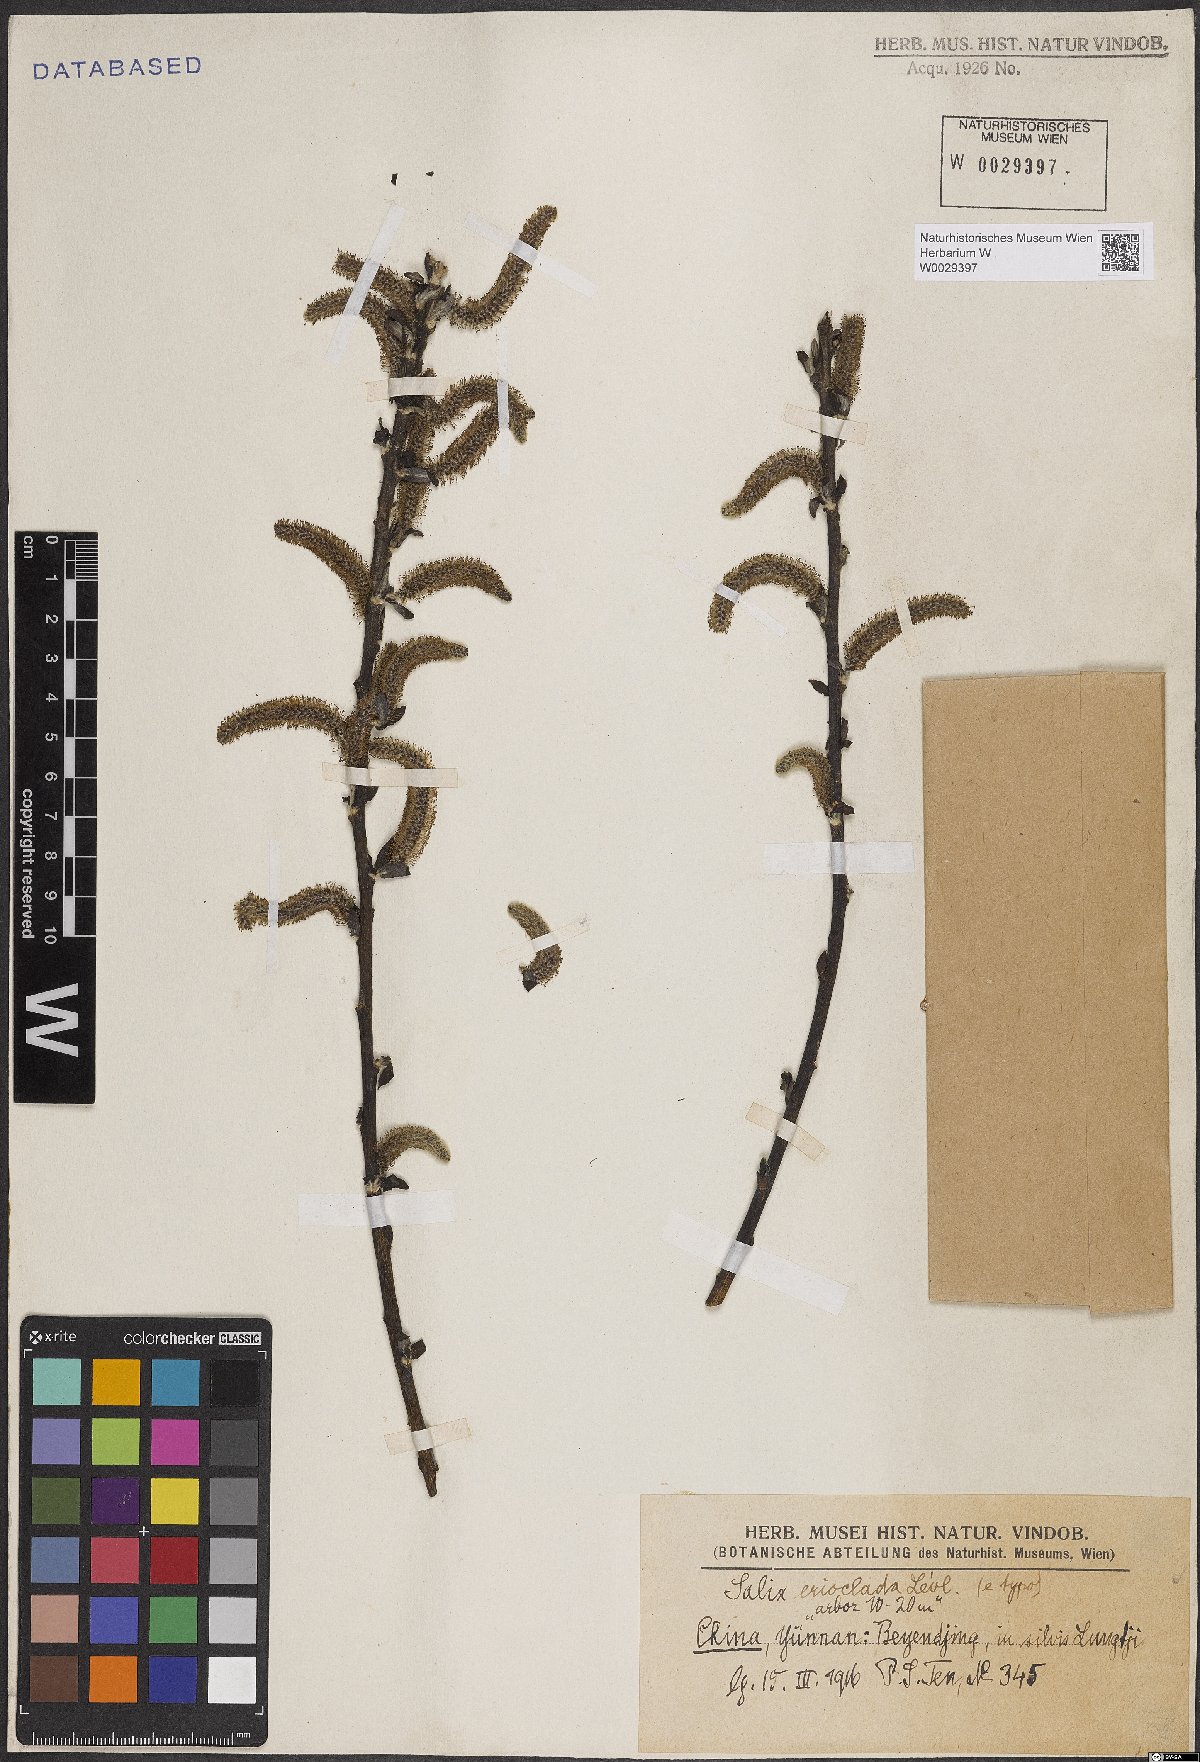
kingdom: Plantae
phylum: Tracheophyta
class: Magnoliopsida
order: Malpighiales
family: Salicaceae
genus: Salix
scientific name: Salix erioclada
